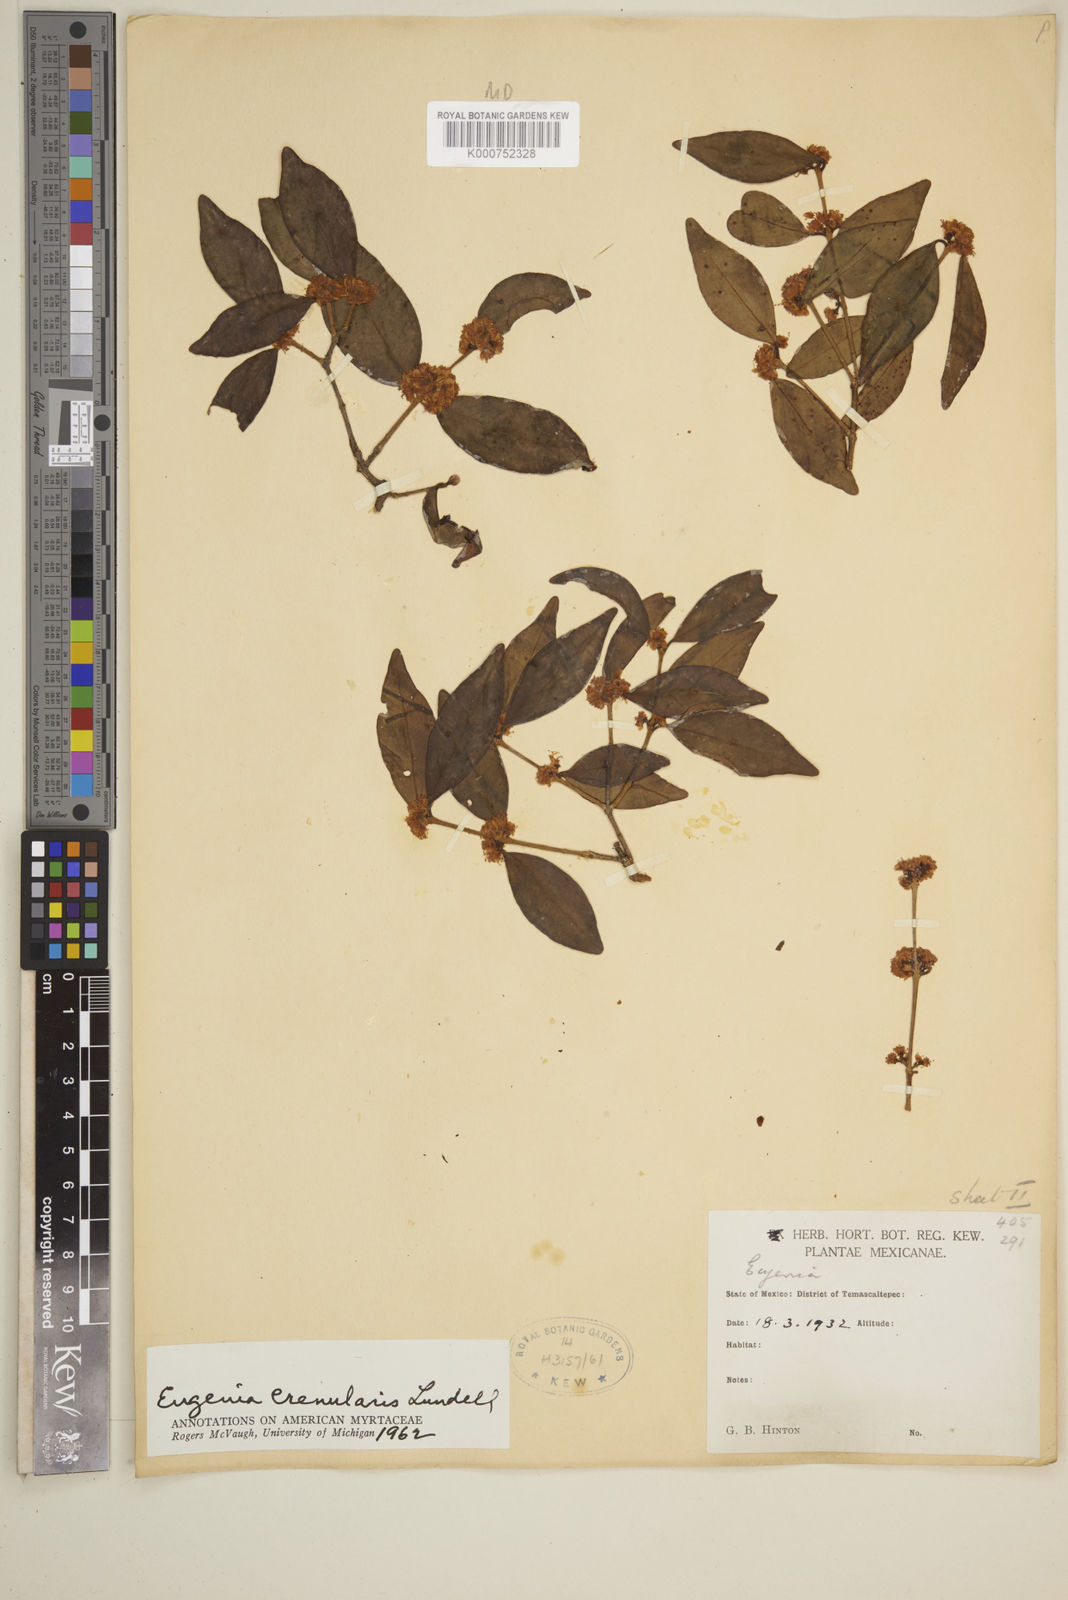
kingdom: Plantae
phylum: Tracheophyta
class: Magnoliopsida
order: Myrtales
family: Myrtaceae
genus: Eugenia
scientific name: Eugenia crenularis
